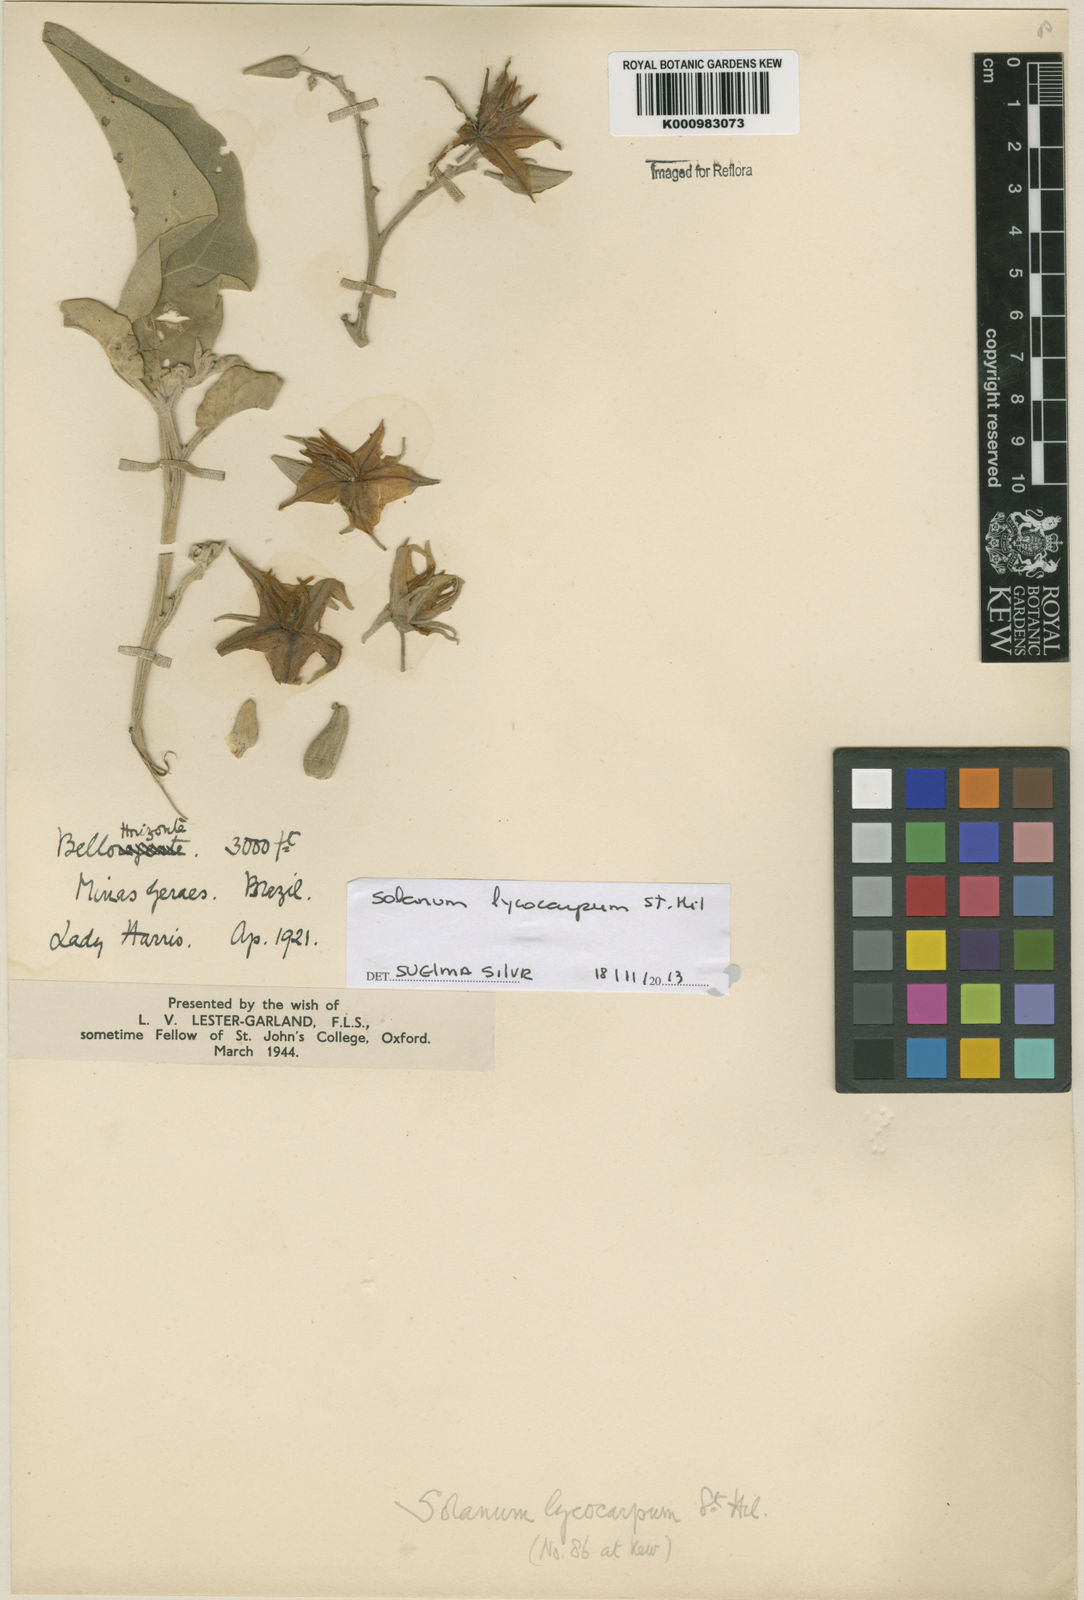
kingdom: Plantae
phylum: Tracheophyta
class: Magnoliopsida
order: Solanales
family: Solanaceae
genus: Solanum
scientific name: Solanum lycocarpum
